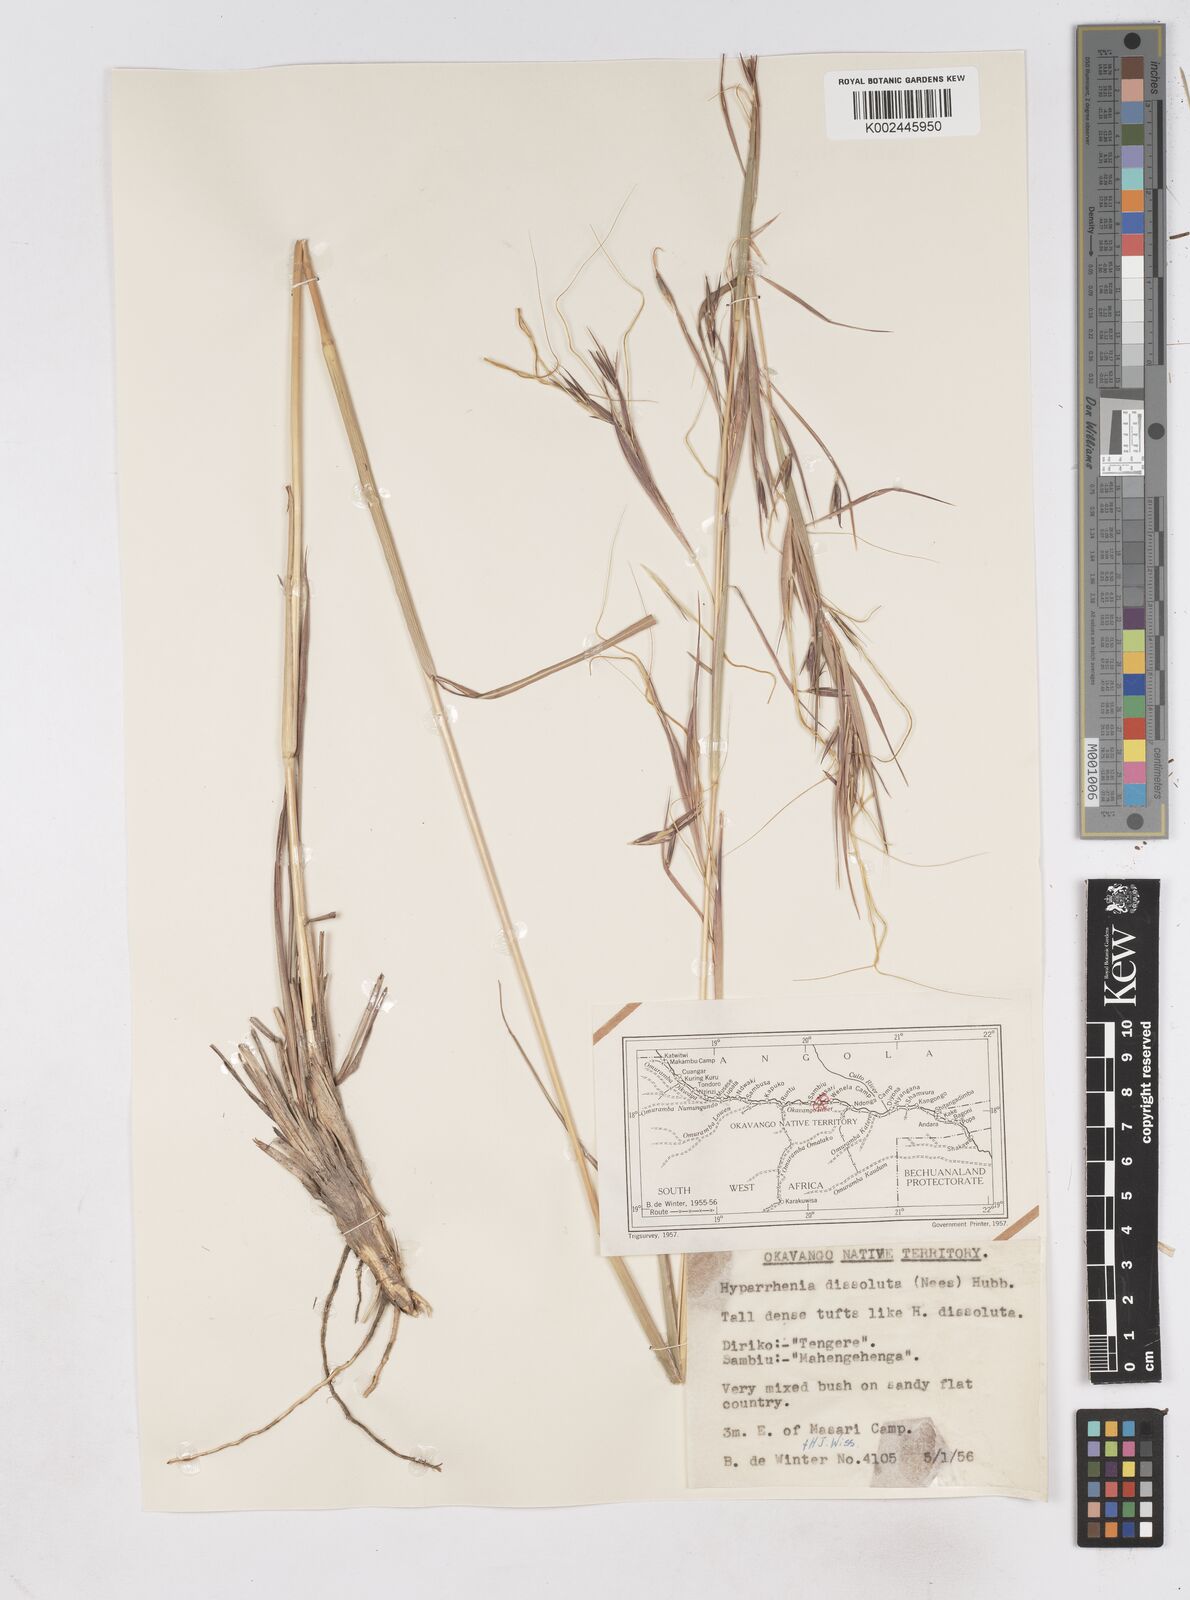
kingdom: Plantae
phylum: Tracheophyta
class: Liliopsida
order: Poales
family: Poaceae
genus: Hyperthelia
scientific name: Hyperthelia dissoluta
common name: Yellow thatching grass
